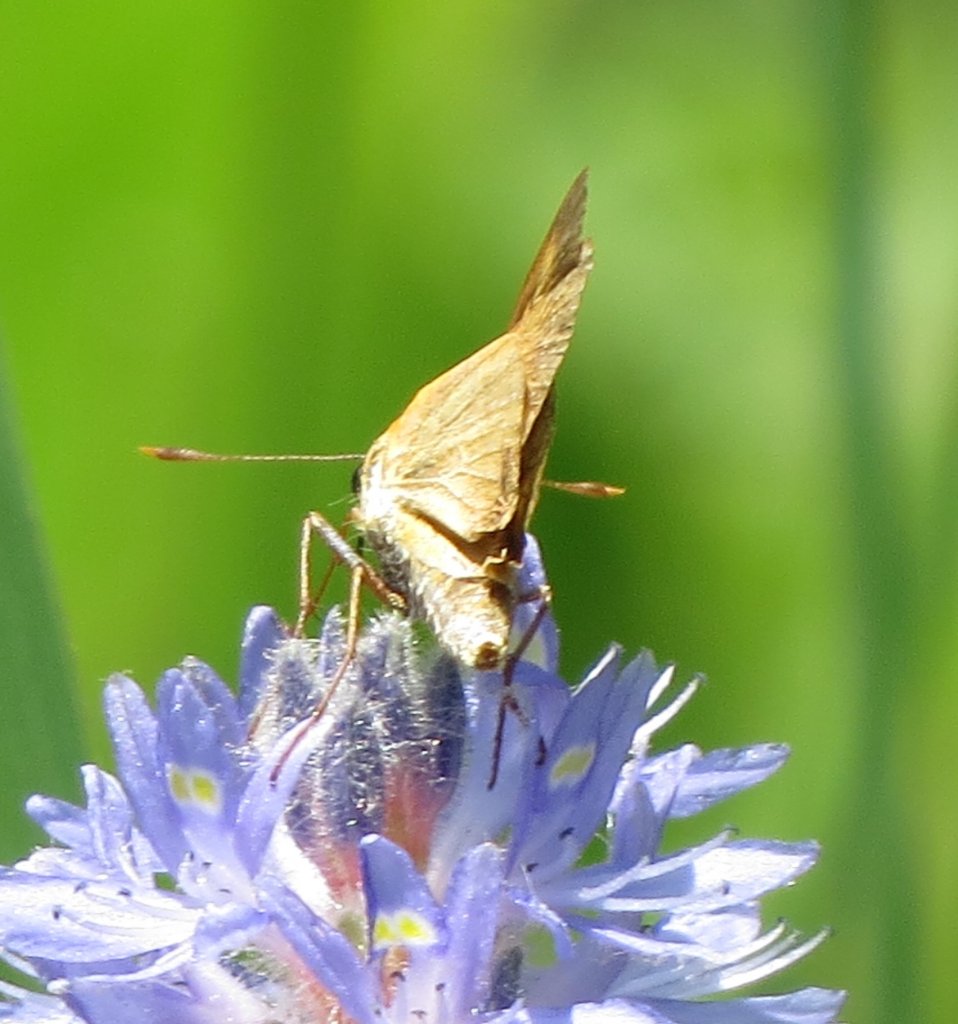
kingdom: Animalia
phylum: Arthropoda
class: Insecta
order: Lepidoptera
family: Hesperiidae
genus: Problema
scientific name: Problema bulenta
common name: Rare Skipper
